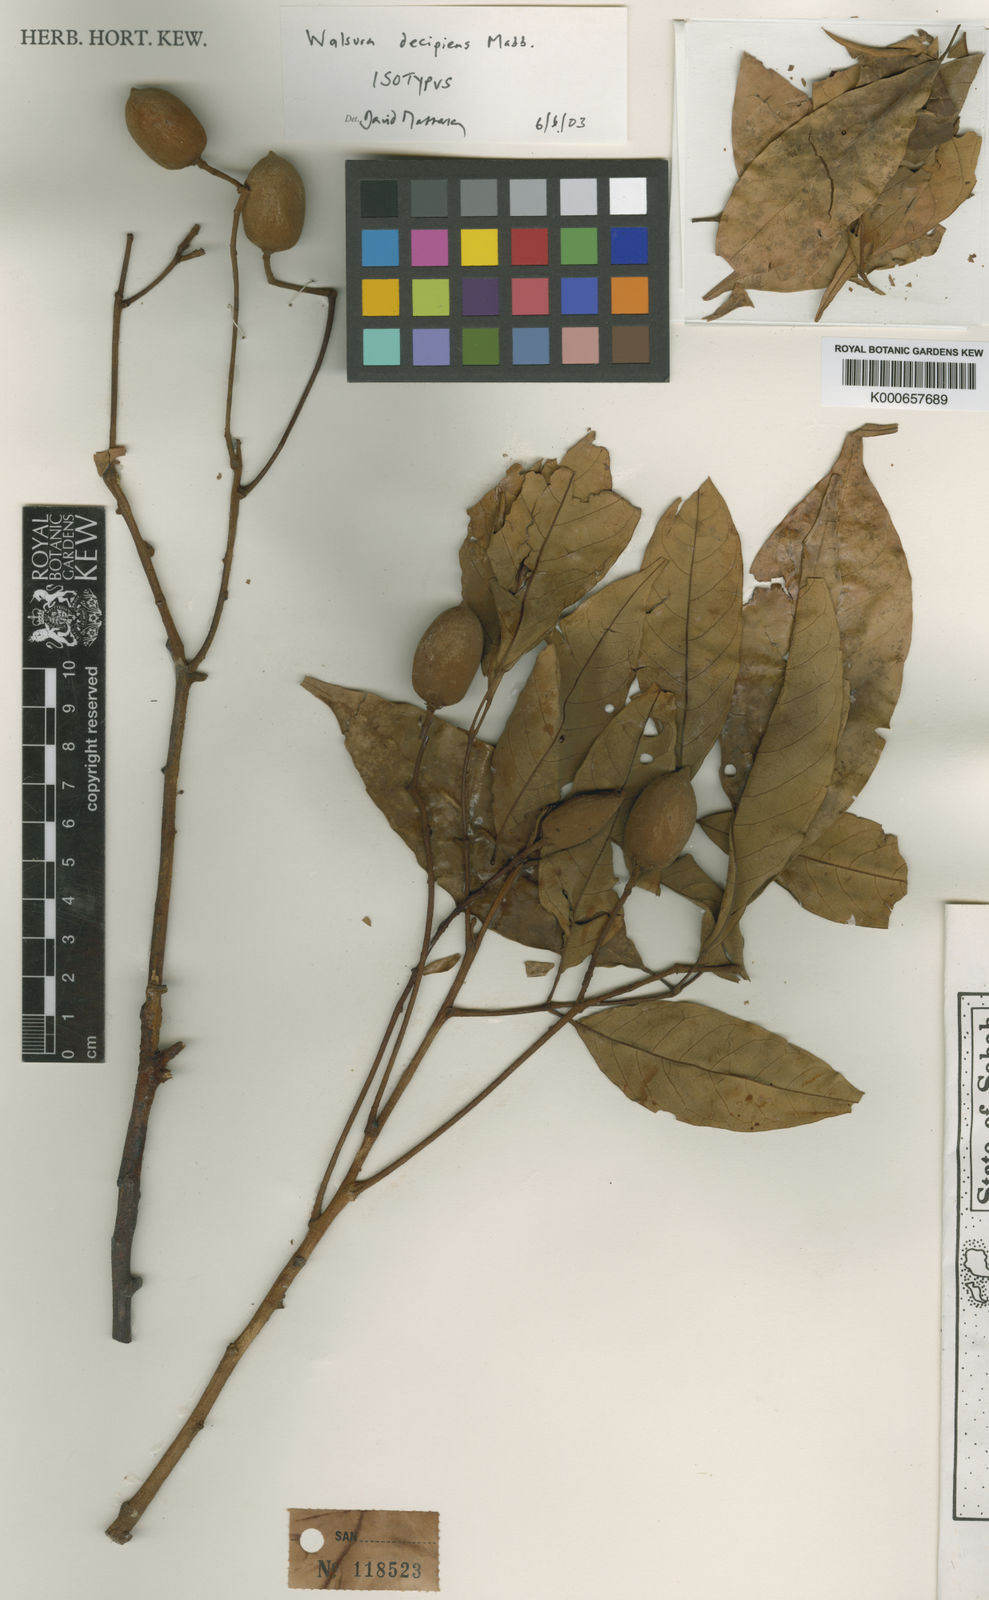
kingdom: Plantae
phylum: Tracheophyta
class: Magnoliopsida
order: Sapindales
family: Meliaceae
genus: Walsura
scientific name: Walsura decipiens
